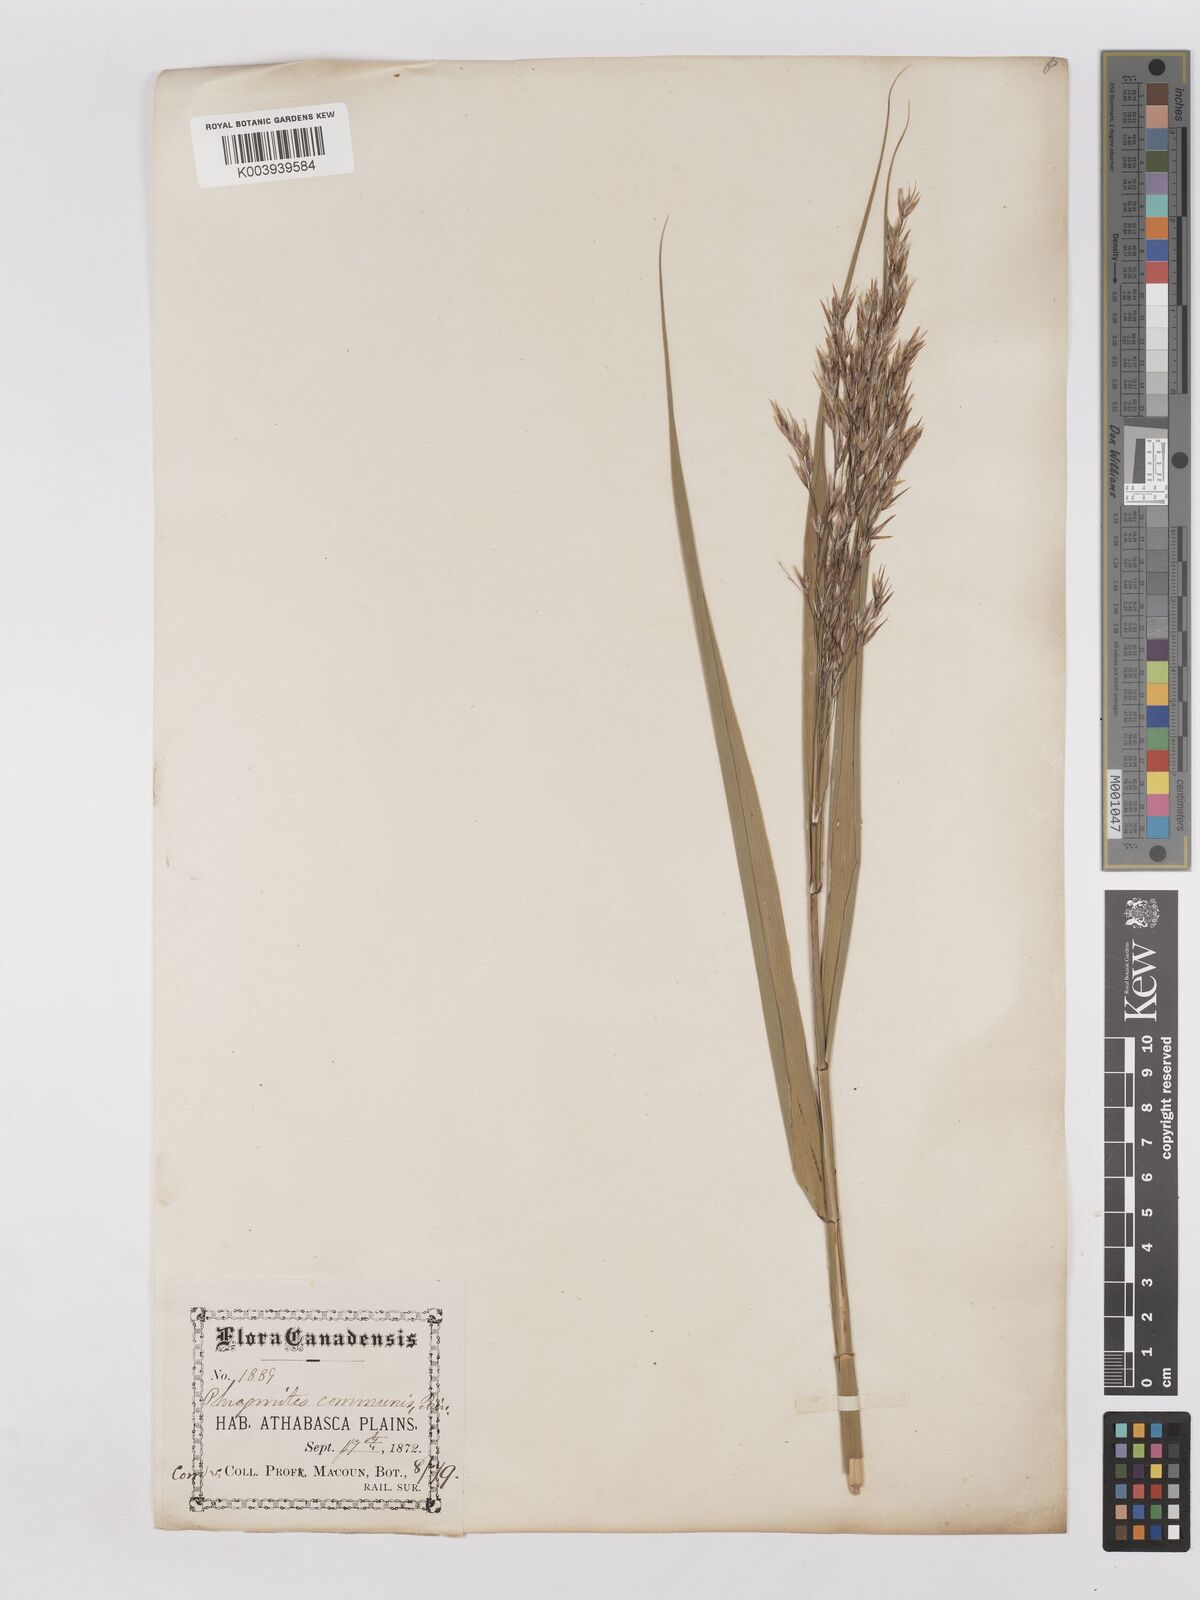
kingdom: Plantae
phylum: Tracheophyta
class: Liliopsida
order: Poales
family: Poaceae
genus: Phragmites
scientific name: Phragmites australis
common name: Common reed
